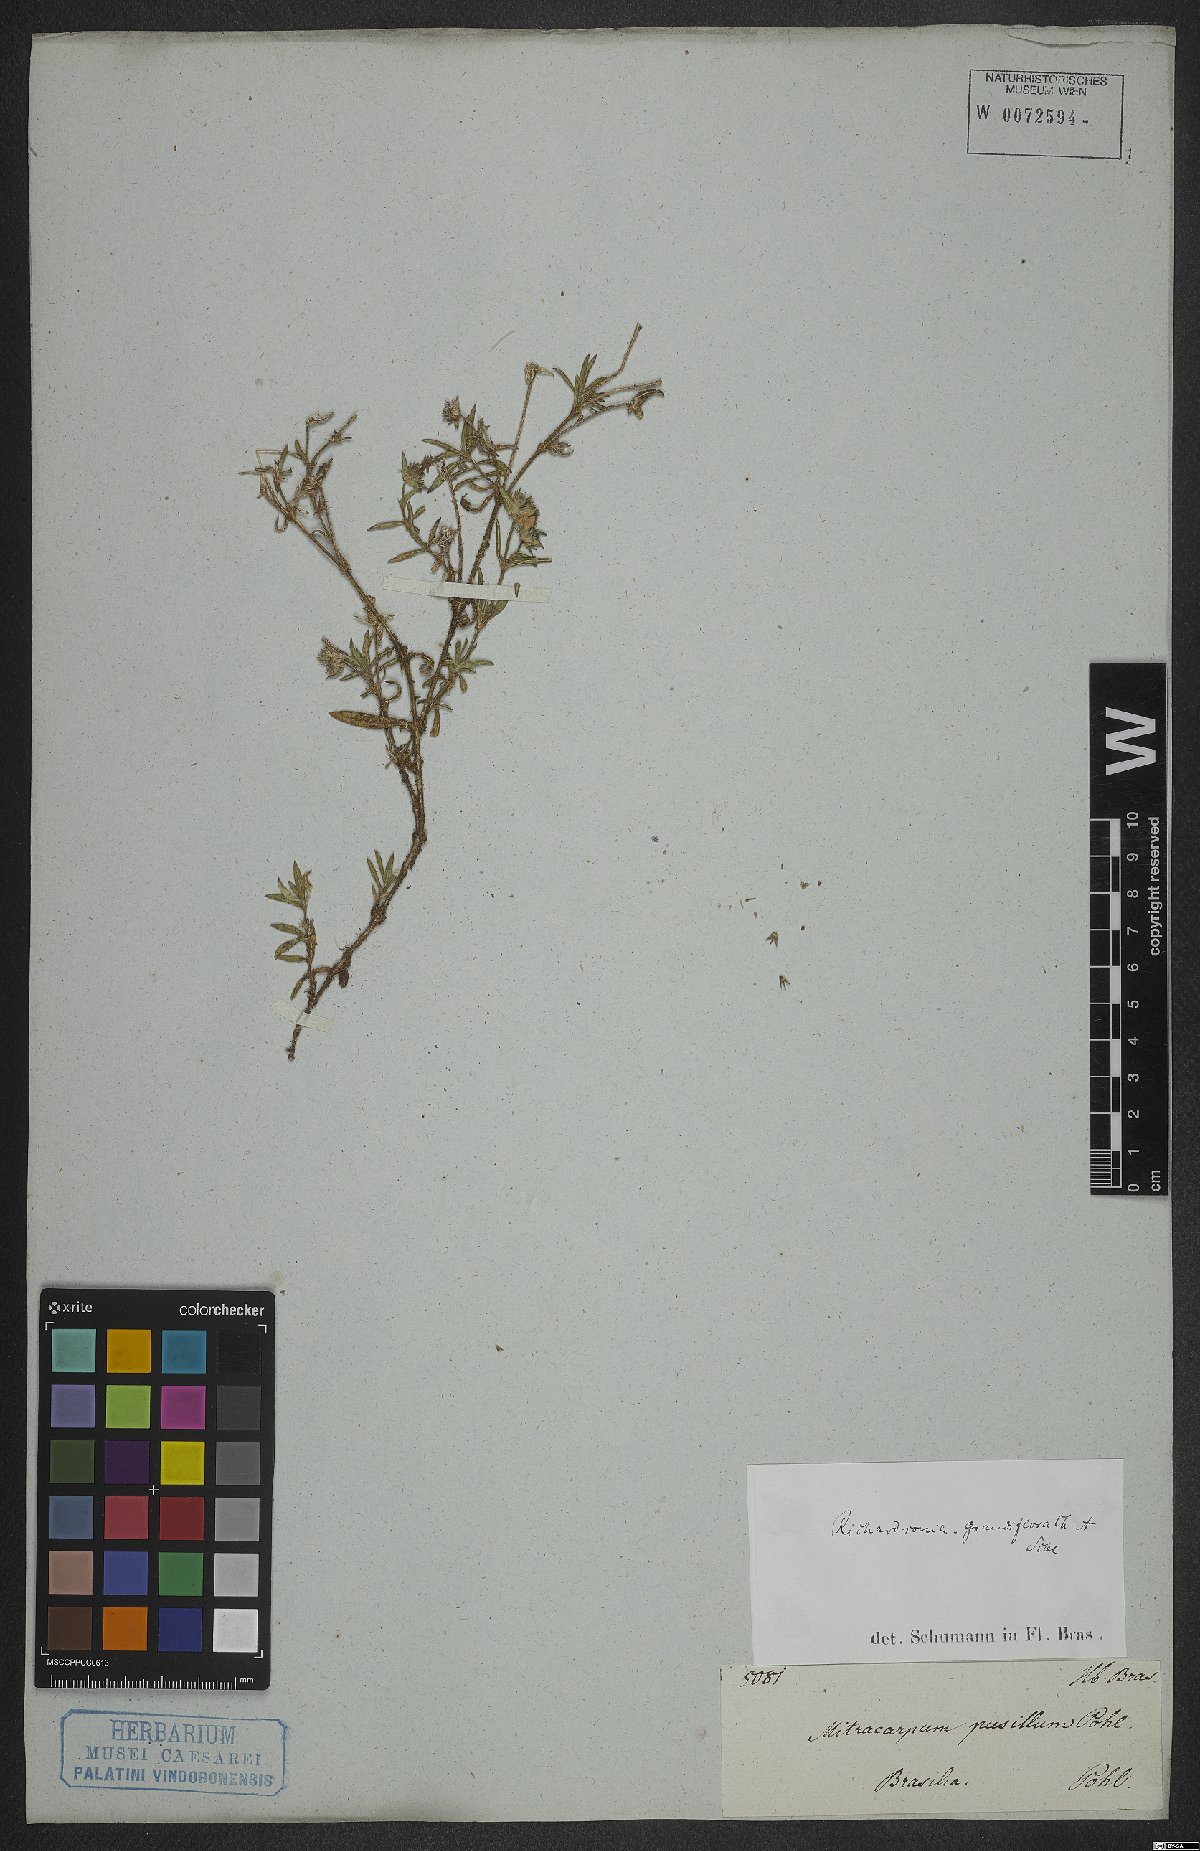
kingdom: Plantae
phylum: Tracheophyta
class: Magnoliopsida
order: Gentianales
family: Rubiaceae
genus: Richardia
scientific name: Richardia grandiflora
